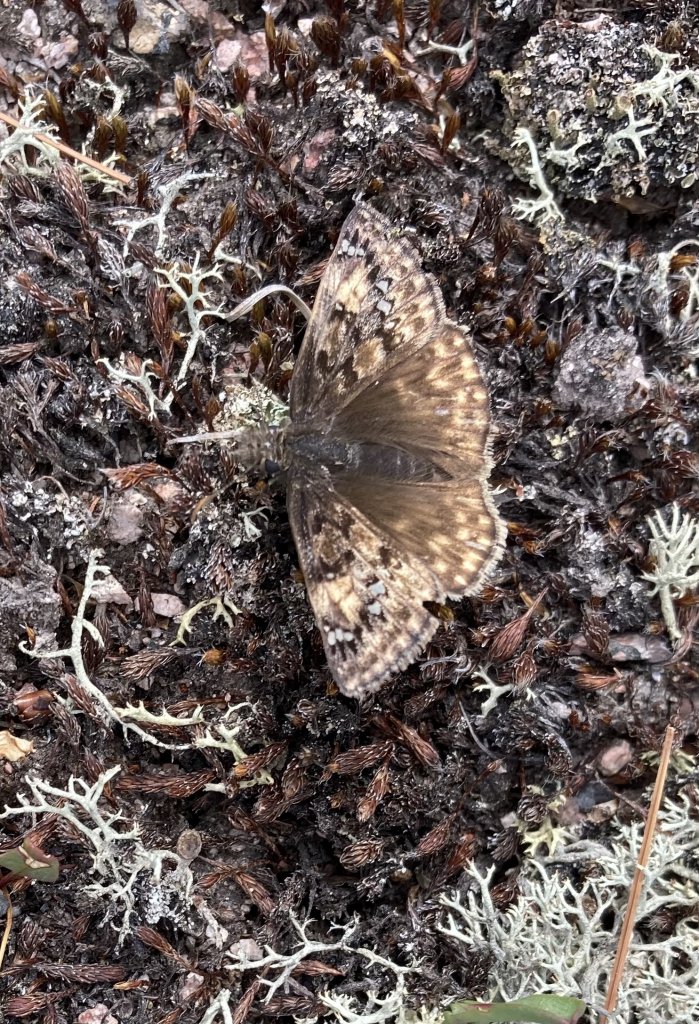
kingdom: Animalia
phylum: Arthropoda
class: Insecta
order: Lepidoptera
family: Hesperiidae
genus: Gesta
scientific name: Gesta
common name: Juvenal's Duskywing
